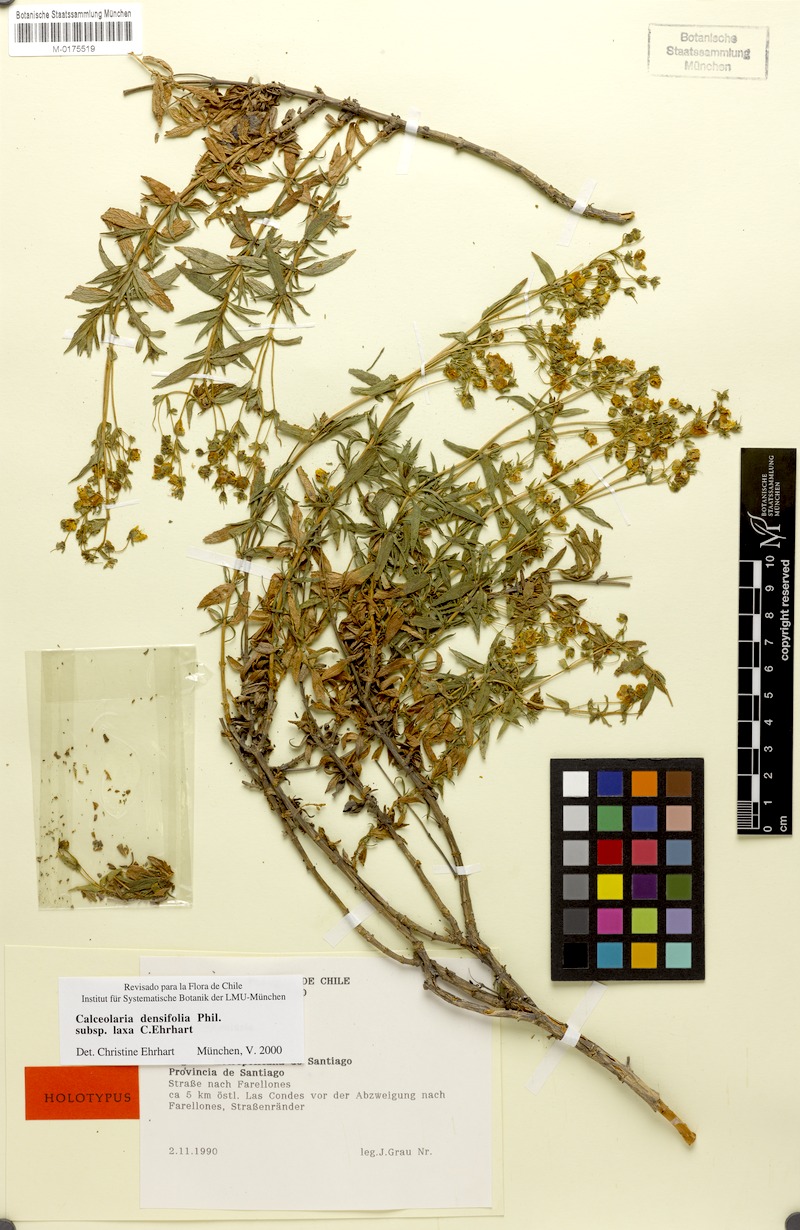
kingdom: Plantae
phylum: Tracheophyta
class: Magnoliopsida
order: Lamiales
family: Calceolariaceae
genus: Calceolaria
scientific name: Calceolaria densifolia
